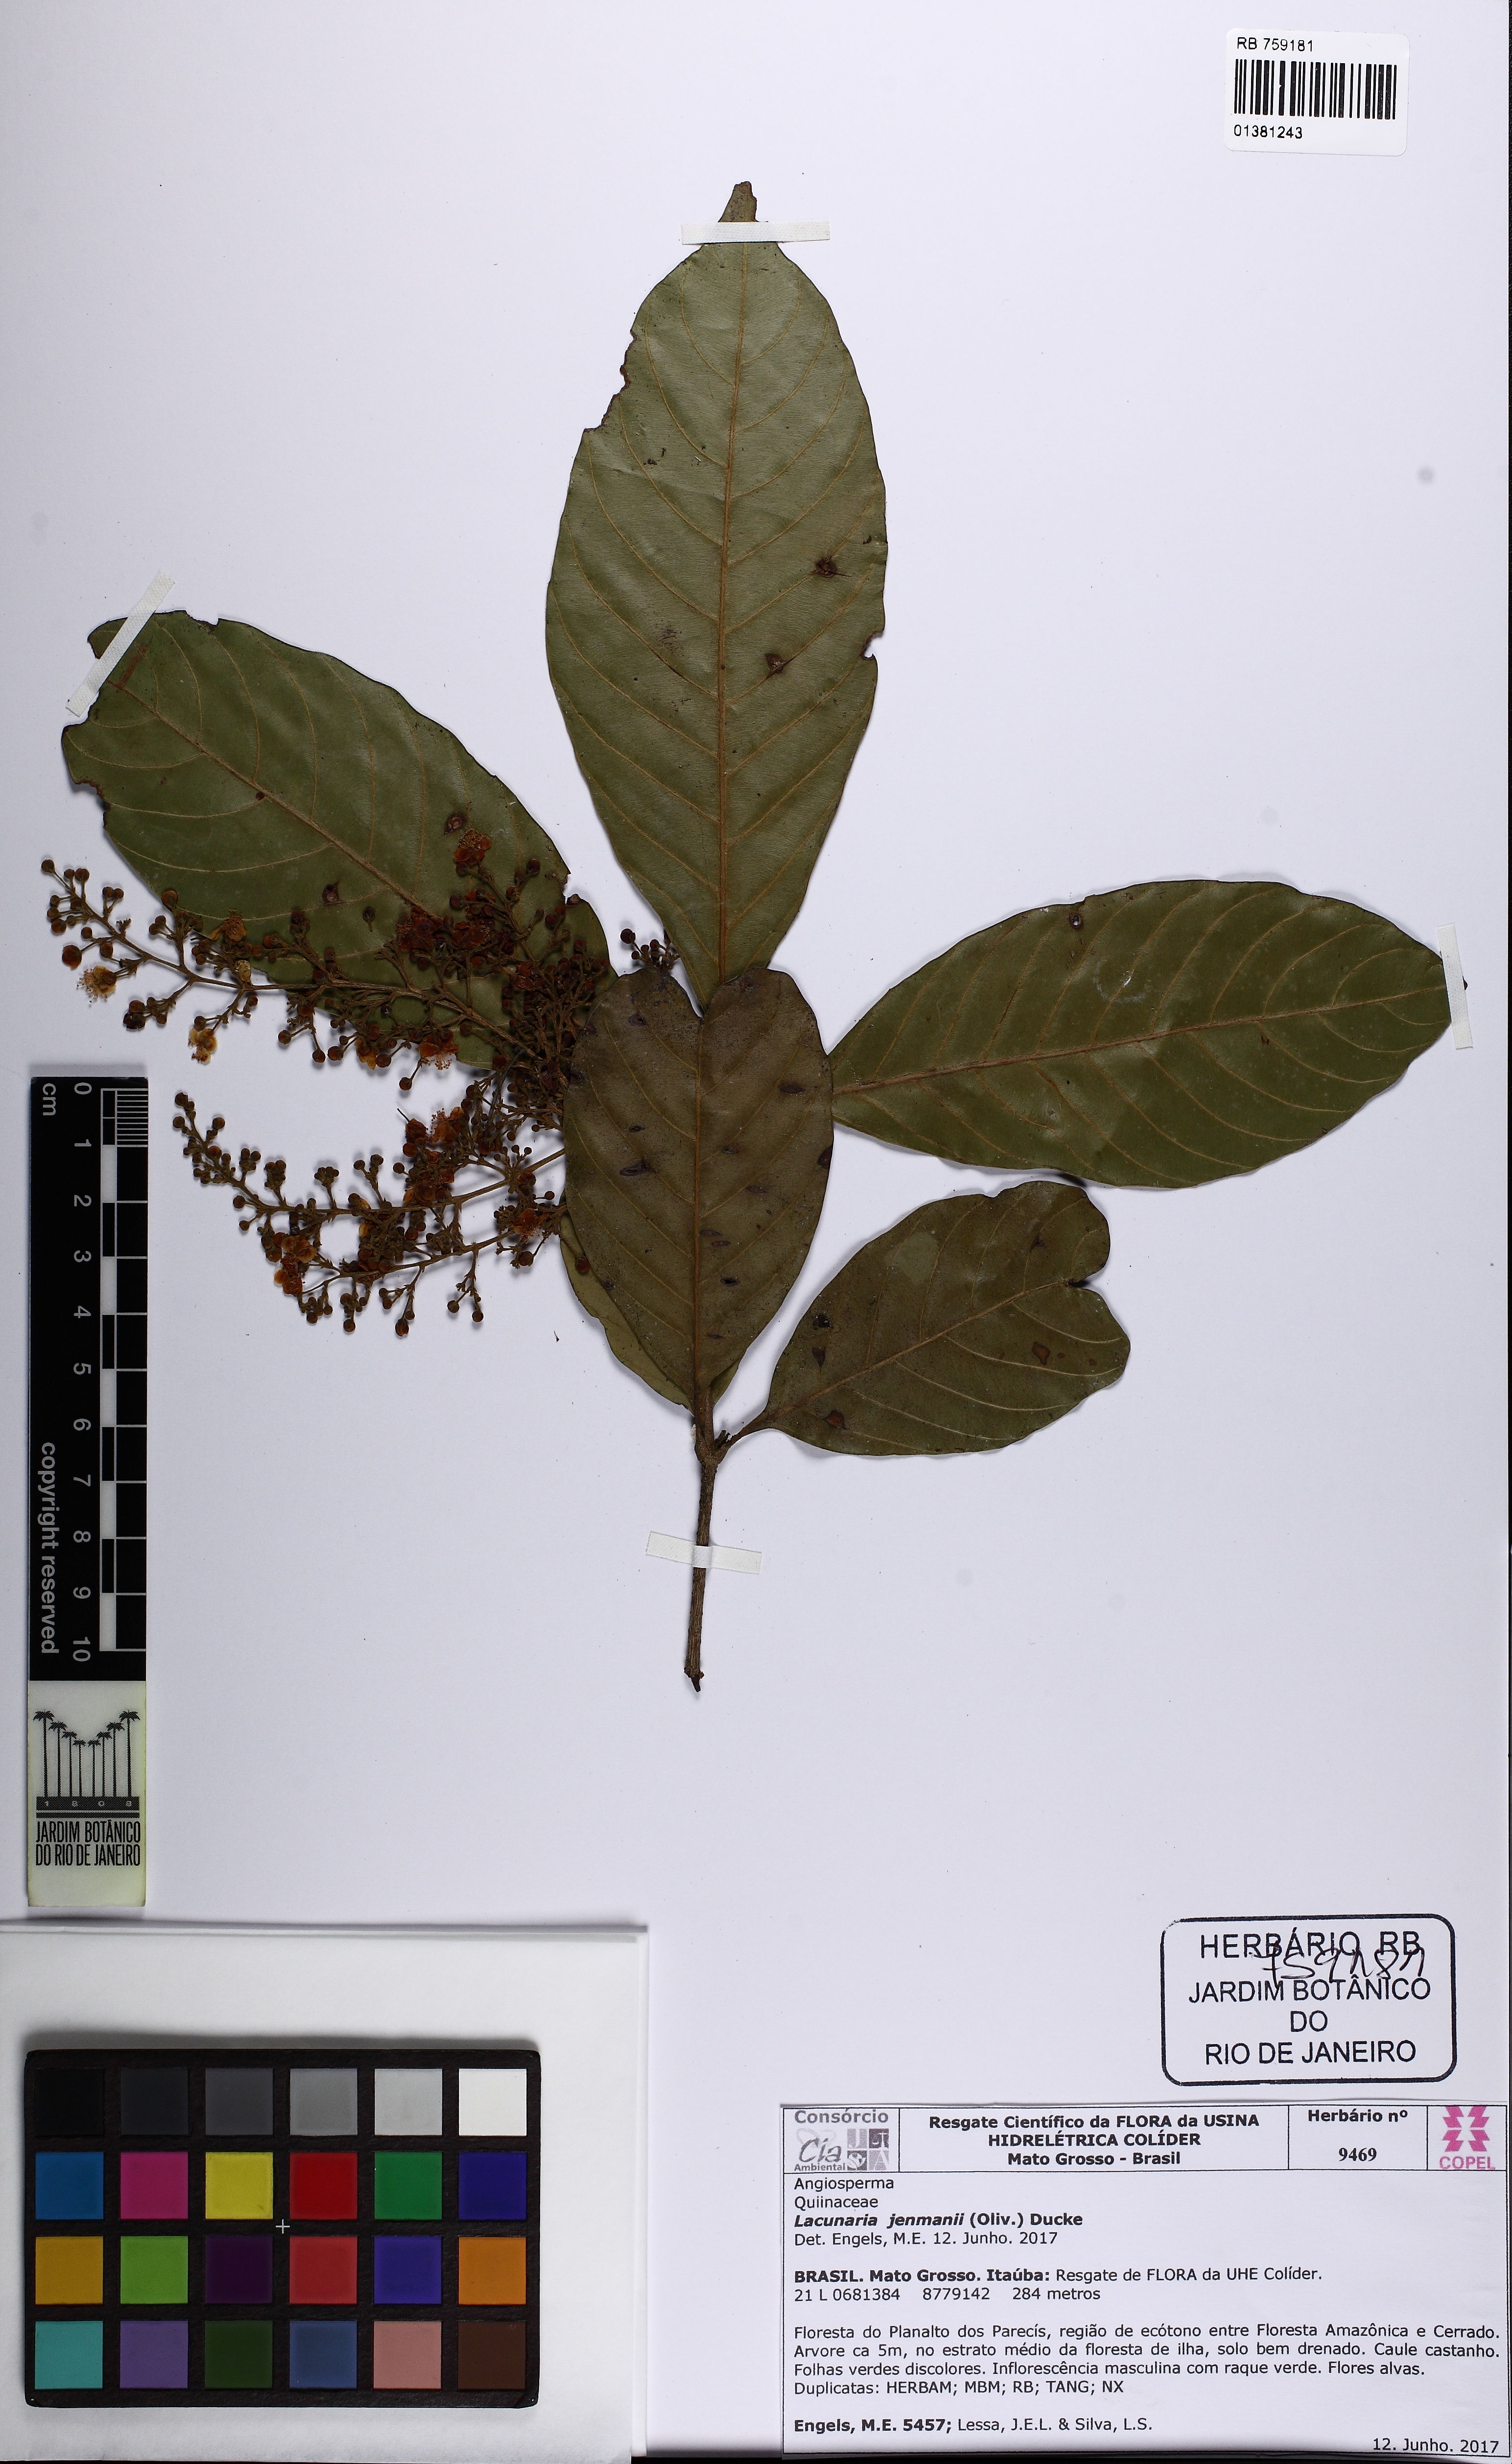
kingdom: Plantae
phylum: Tracheophyta
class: Magnoliopsida
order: Malpighiales
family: Quiinaceae
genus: Lacunaria
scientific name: Lacunaria jenmanii
